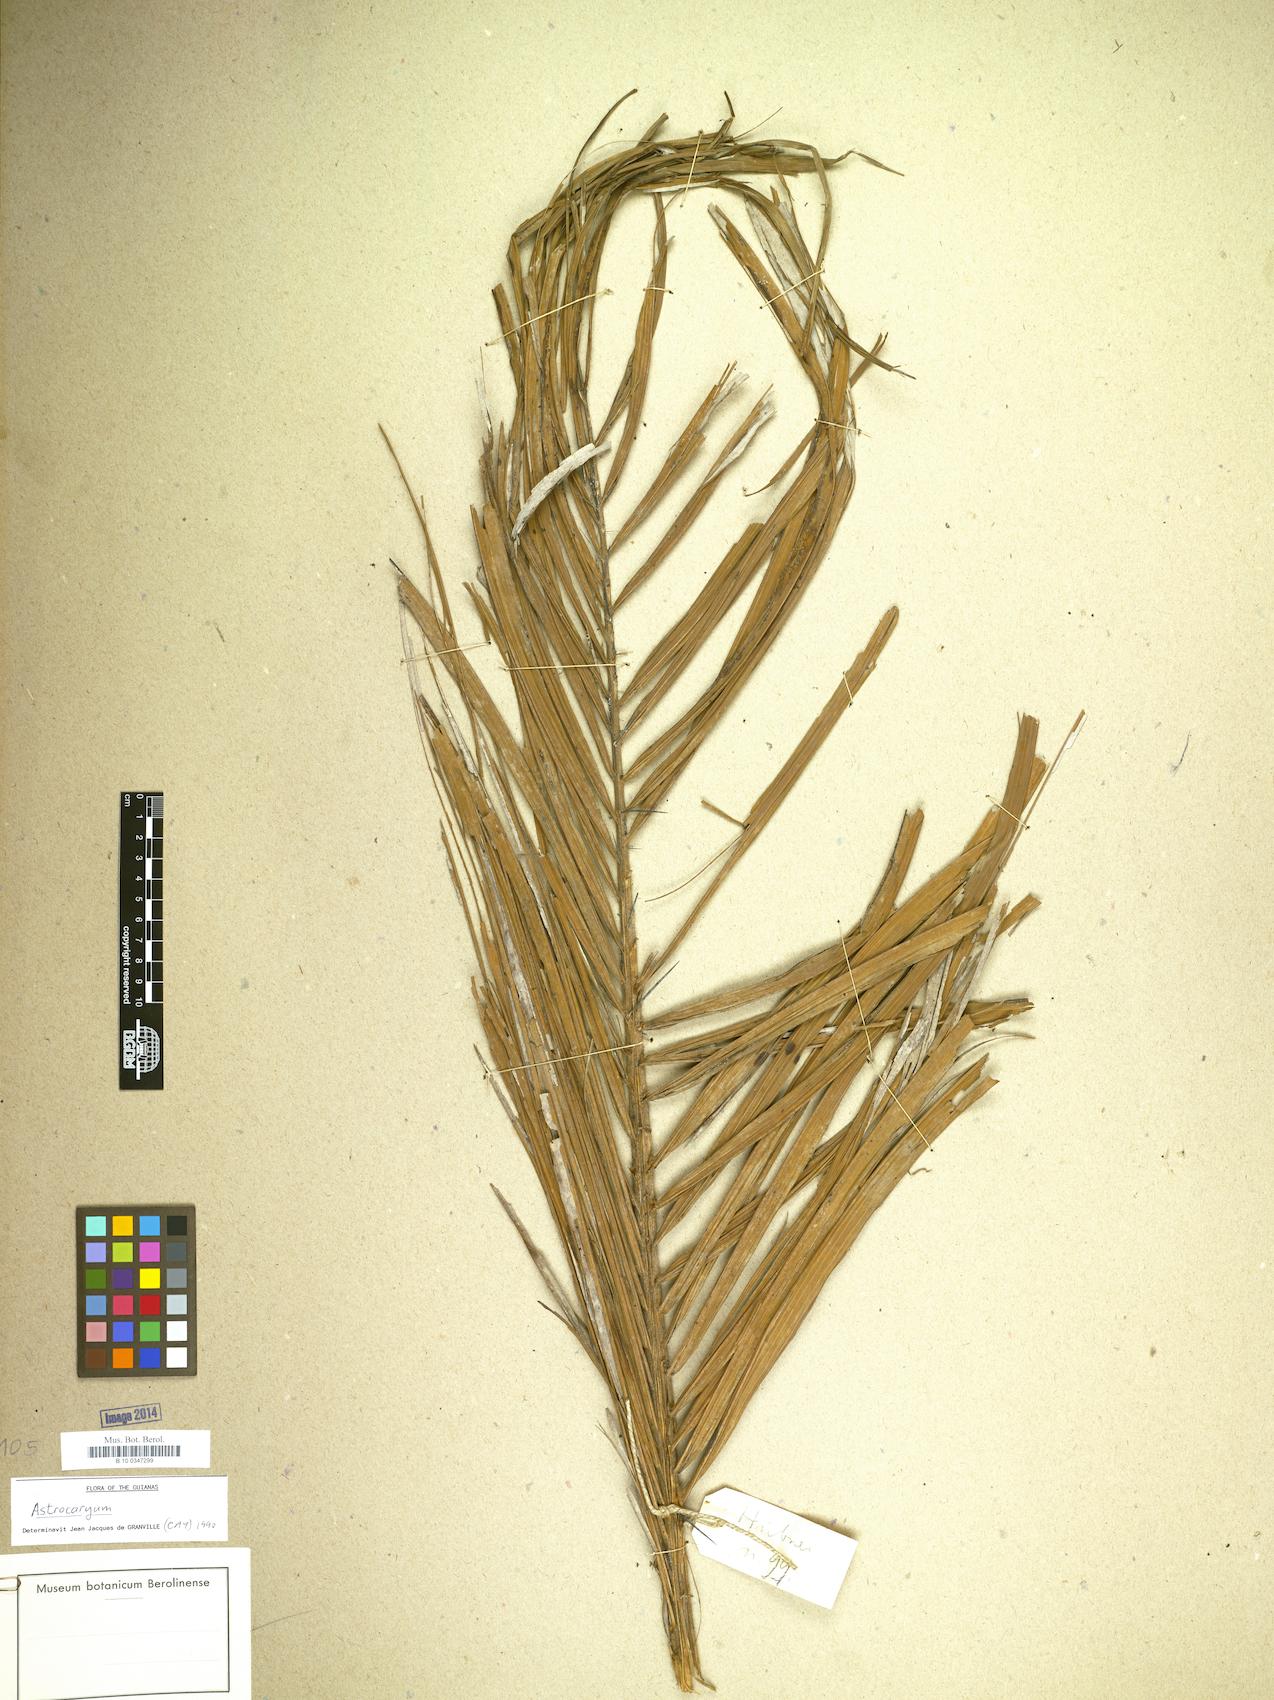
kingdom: Plantae
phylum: Tracheophyta
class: Liliopsida
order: Arecales
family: Arecaceae
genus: Astrocaryum
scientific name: Astrocaryum
